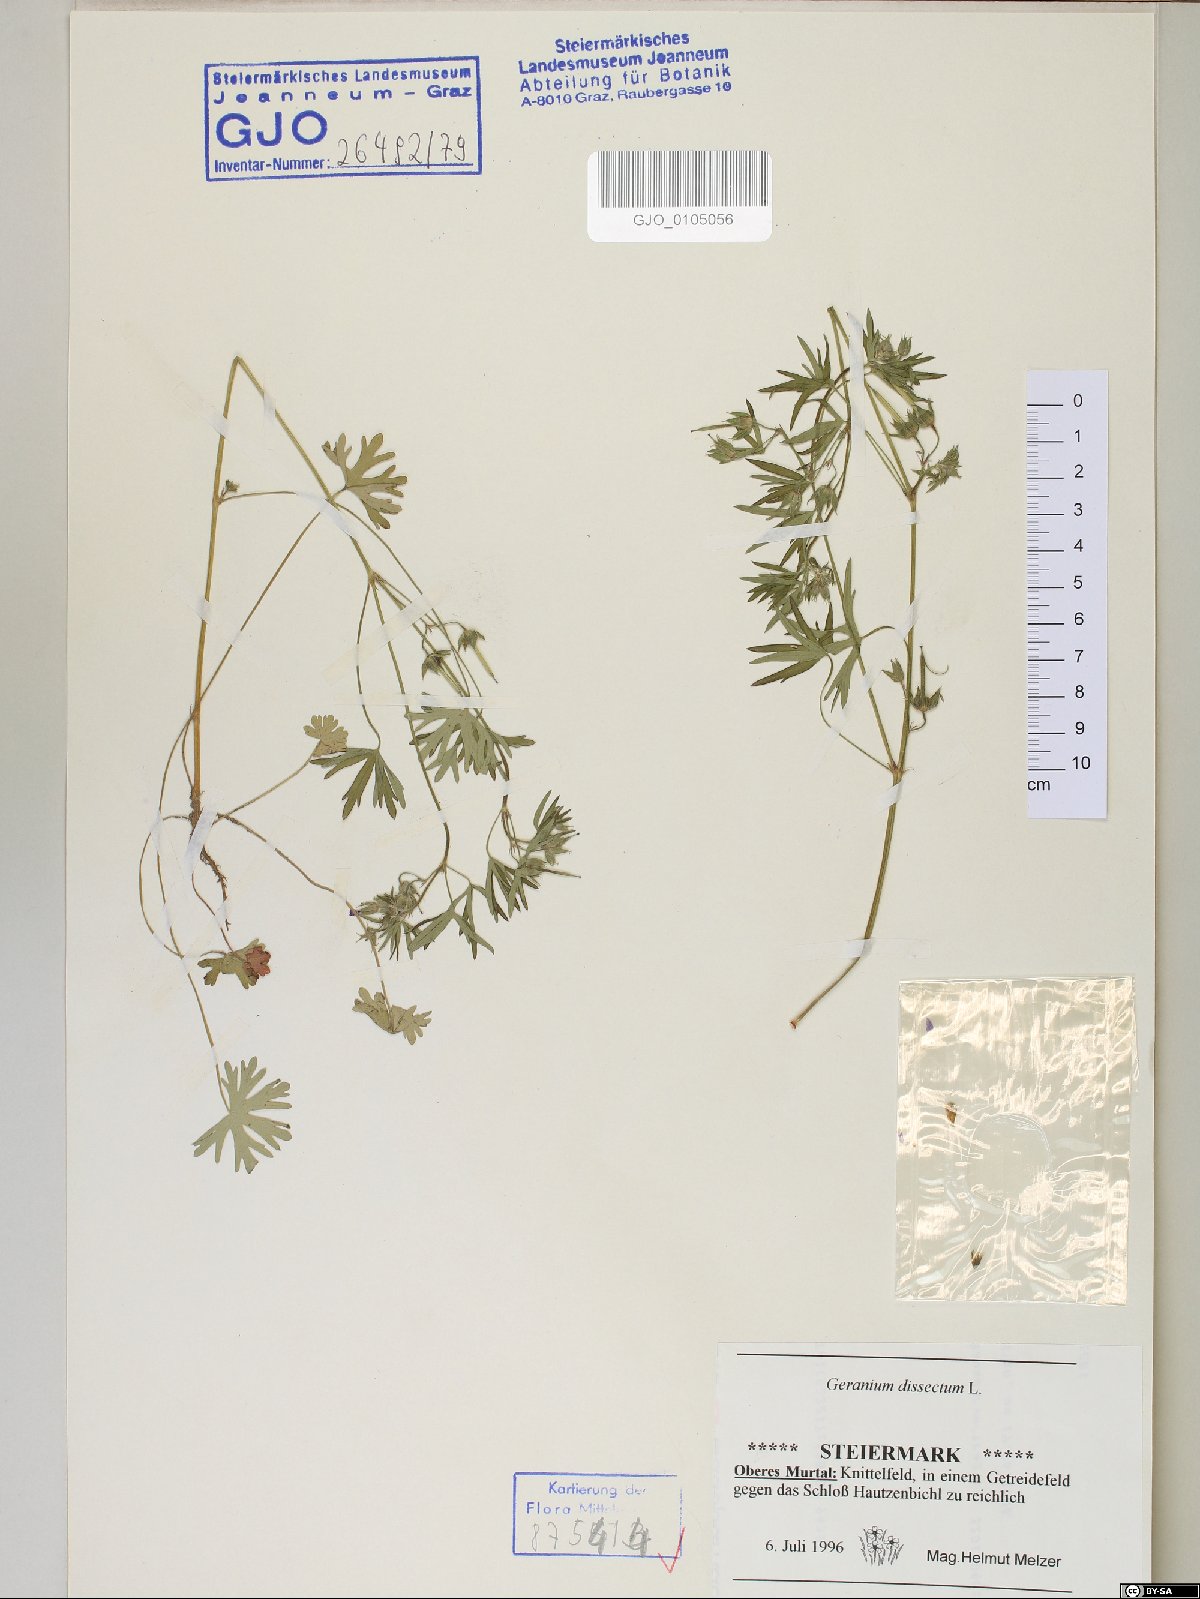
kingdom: Plantae
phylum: Tracheophyta
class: Magnoliopsida
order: Geraniales
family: Geraniaceae
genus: Geranium
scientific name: Geranium dissectum
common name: Cut-leaved crane's-bill
